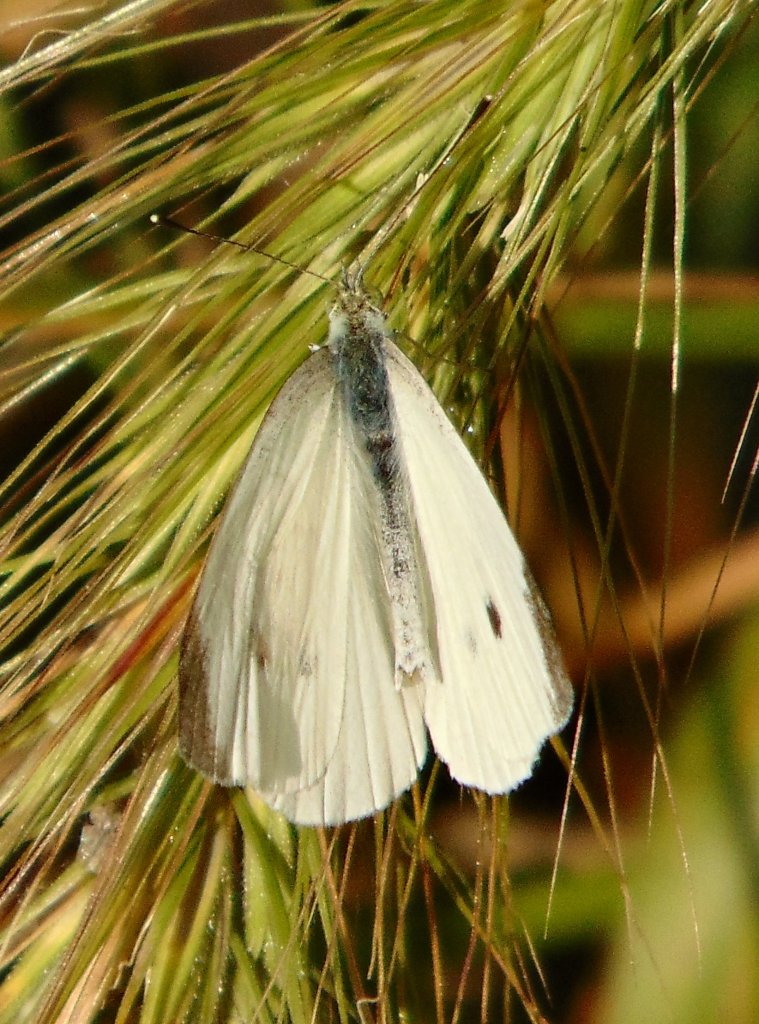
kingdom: Animalia
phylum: Arthropoda
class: Insecta
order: Lepidoptera
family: Pieridae
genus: Pieris
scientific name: Pieris rapae
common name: Cabbage White
